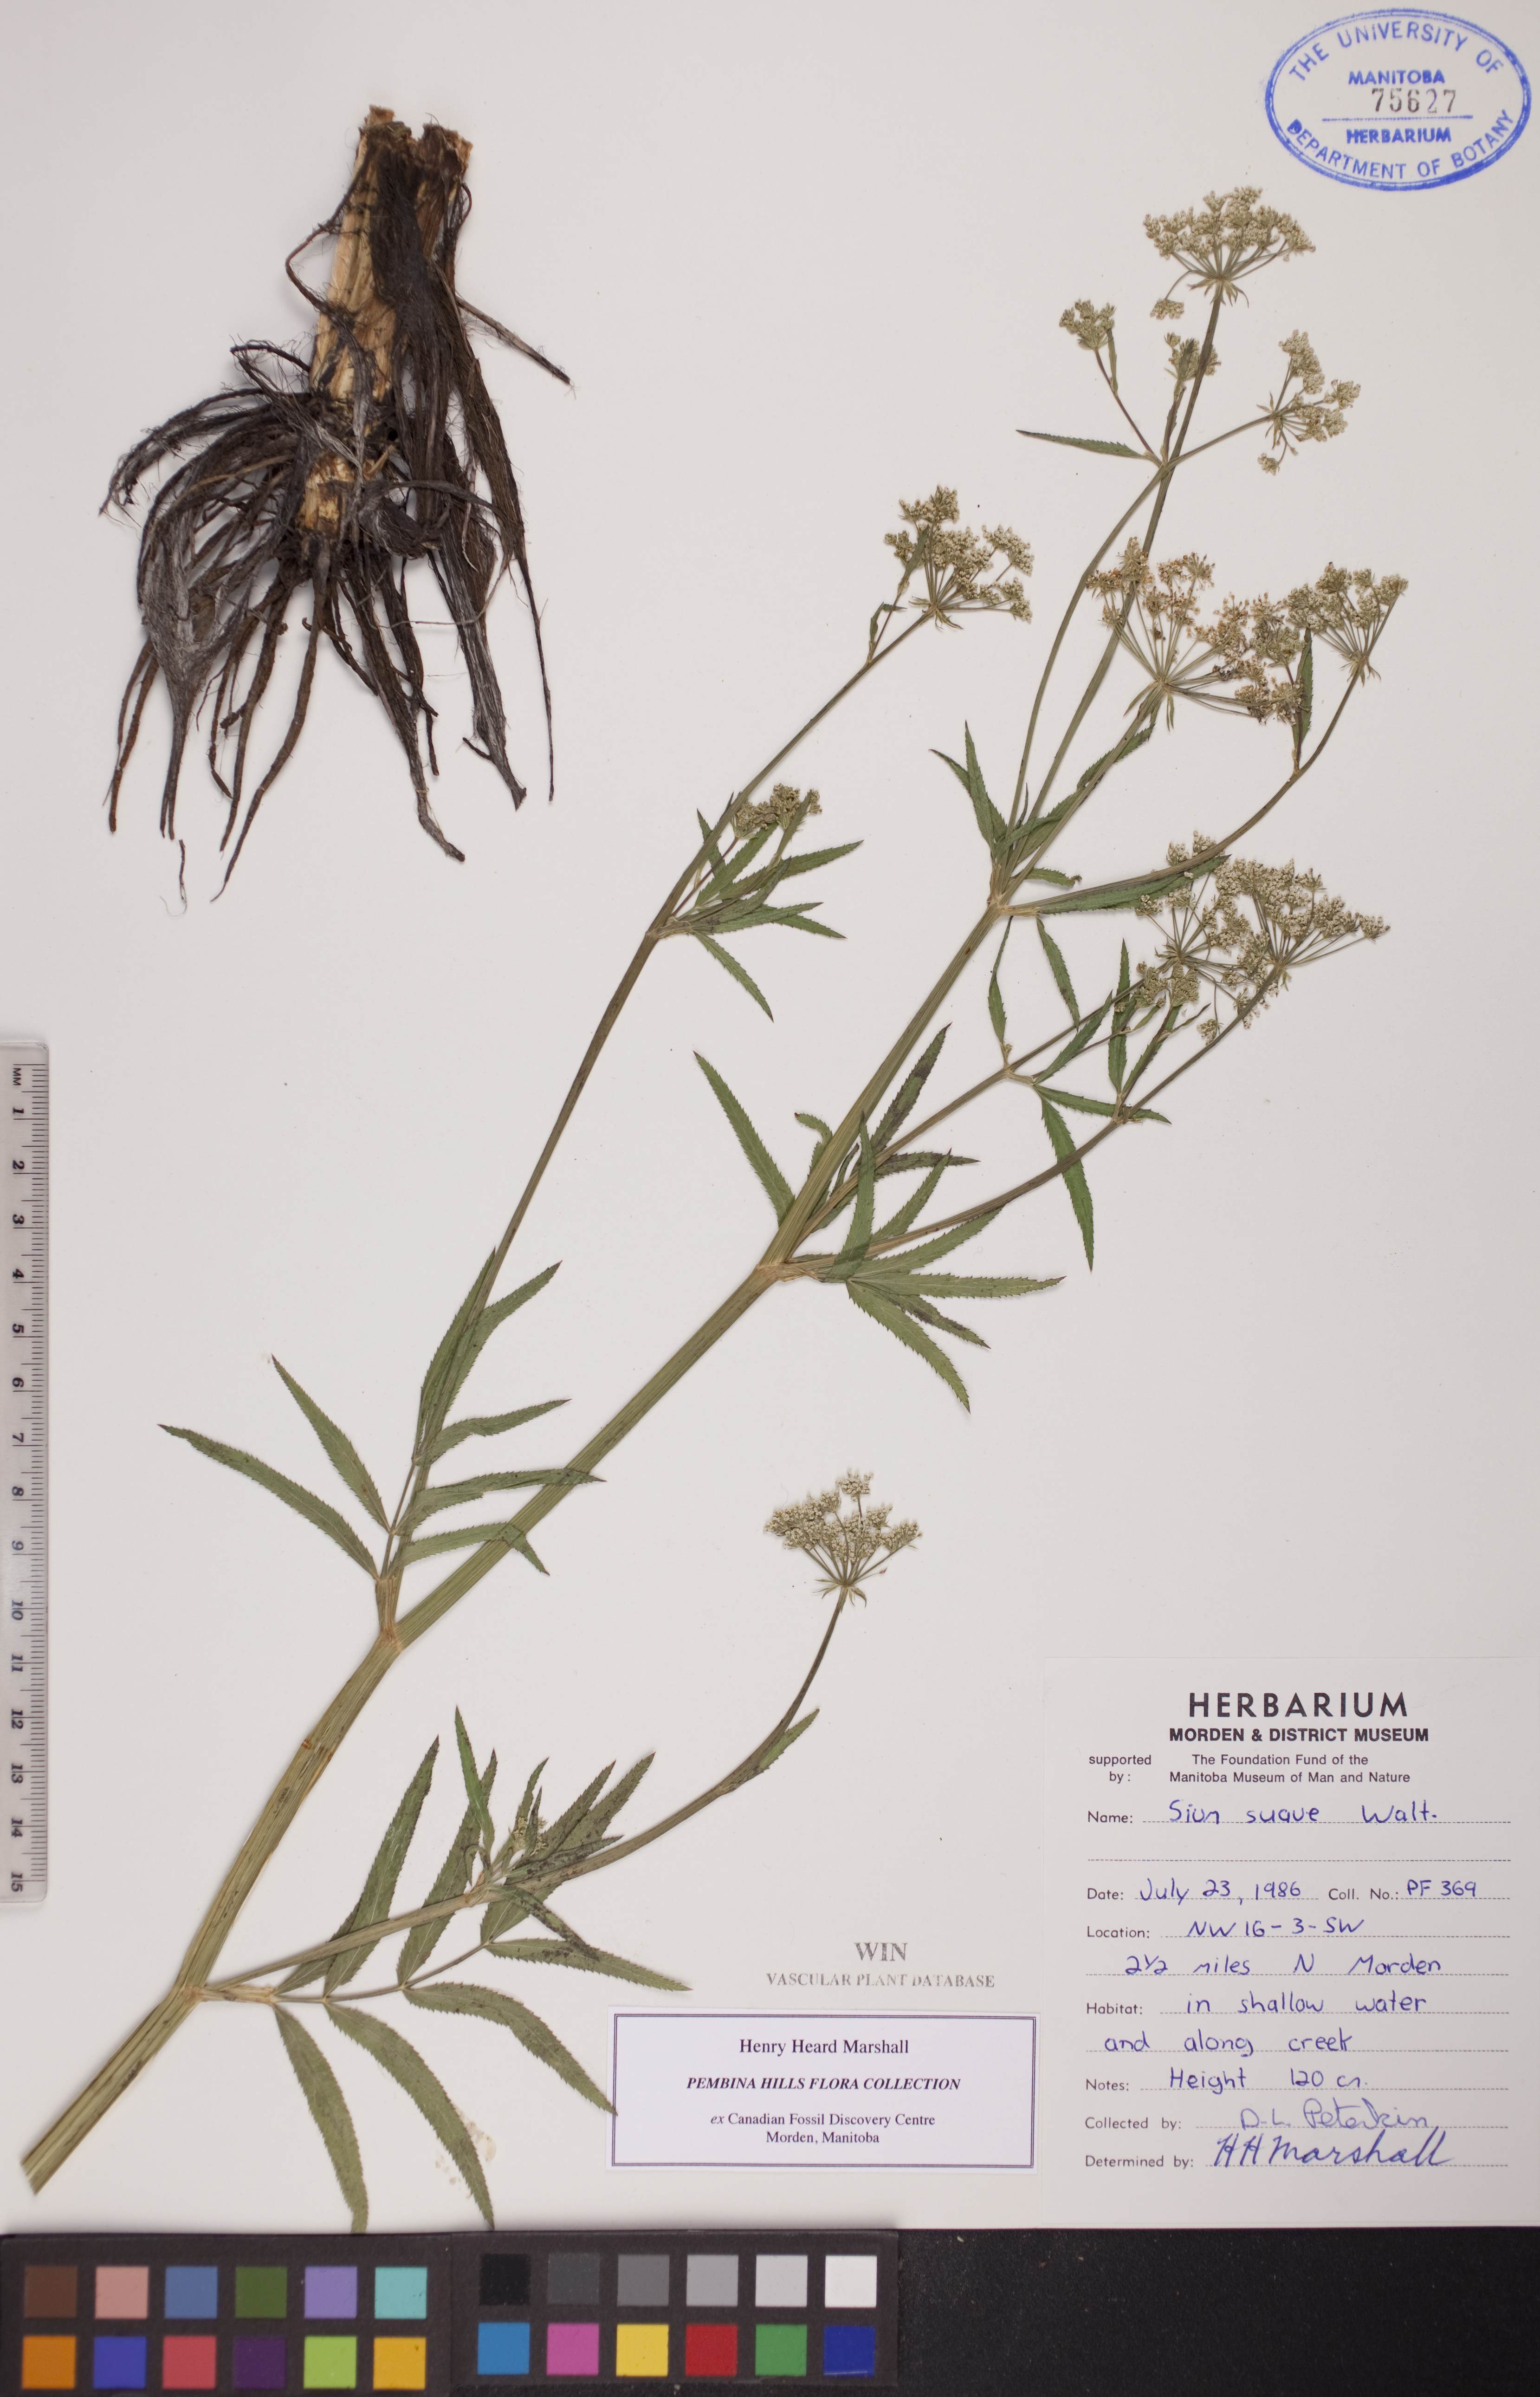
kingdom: Plantae
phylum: Tracheophyta
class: Magnoliopsida
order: Apiales
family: Apiaceae
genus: Sium
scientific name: Sium suave
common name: Hemlock water-parsnip
